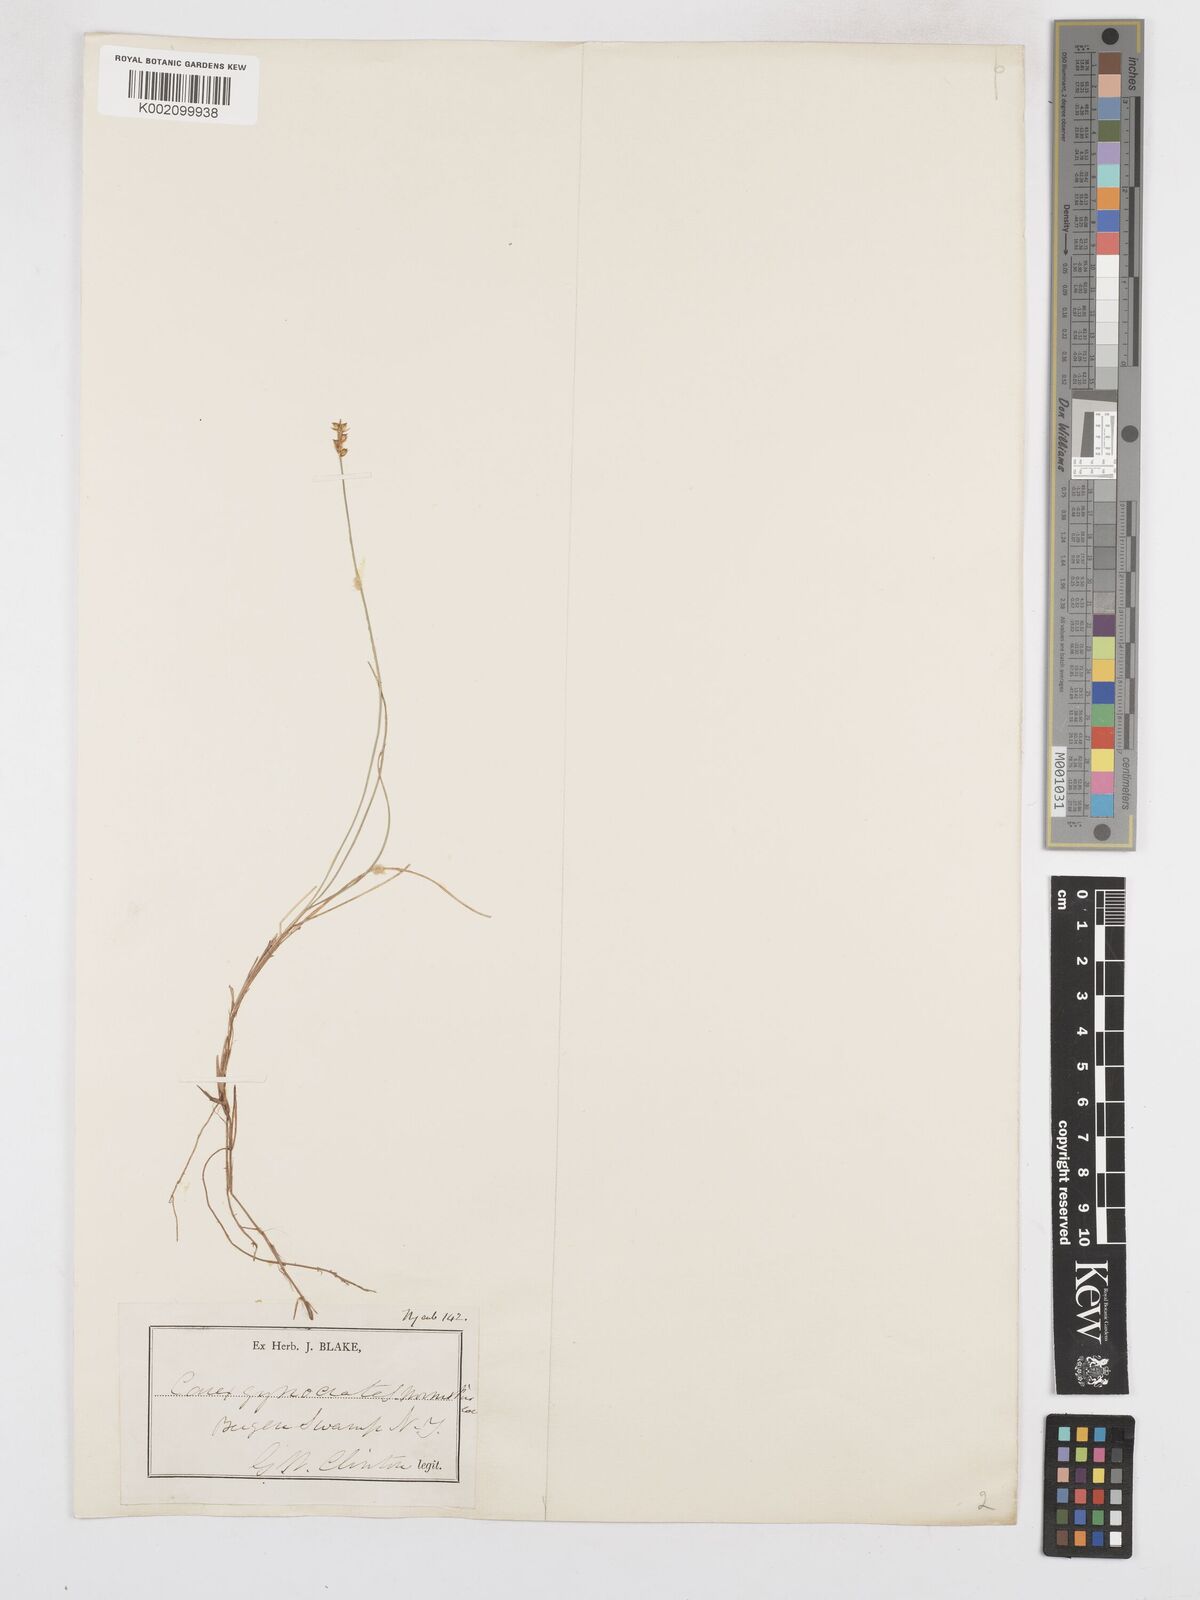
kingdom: Plantae
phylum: Tracheophyta
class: Liliopsida
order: Poales
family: Cyperaceae
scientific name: Cyperaceae
